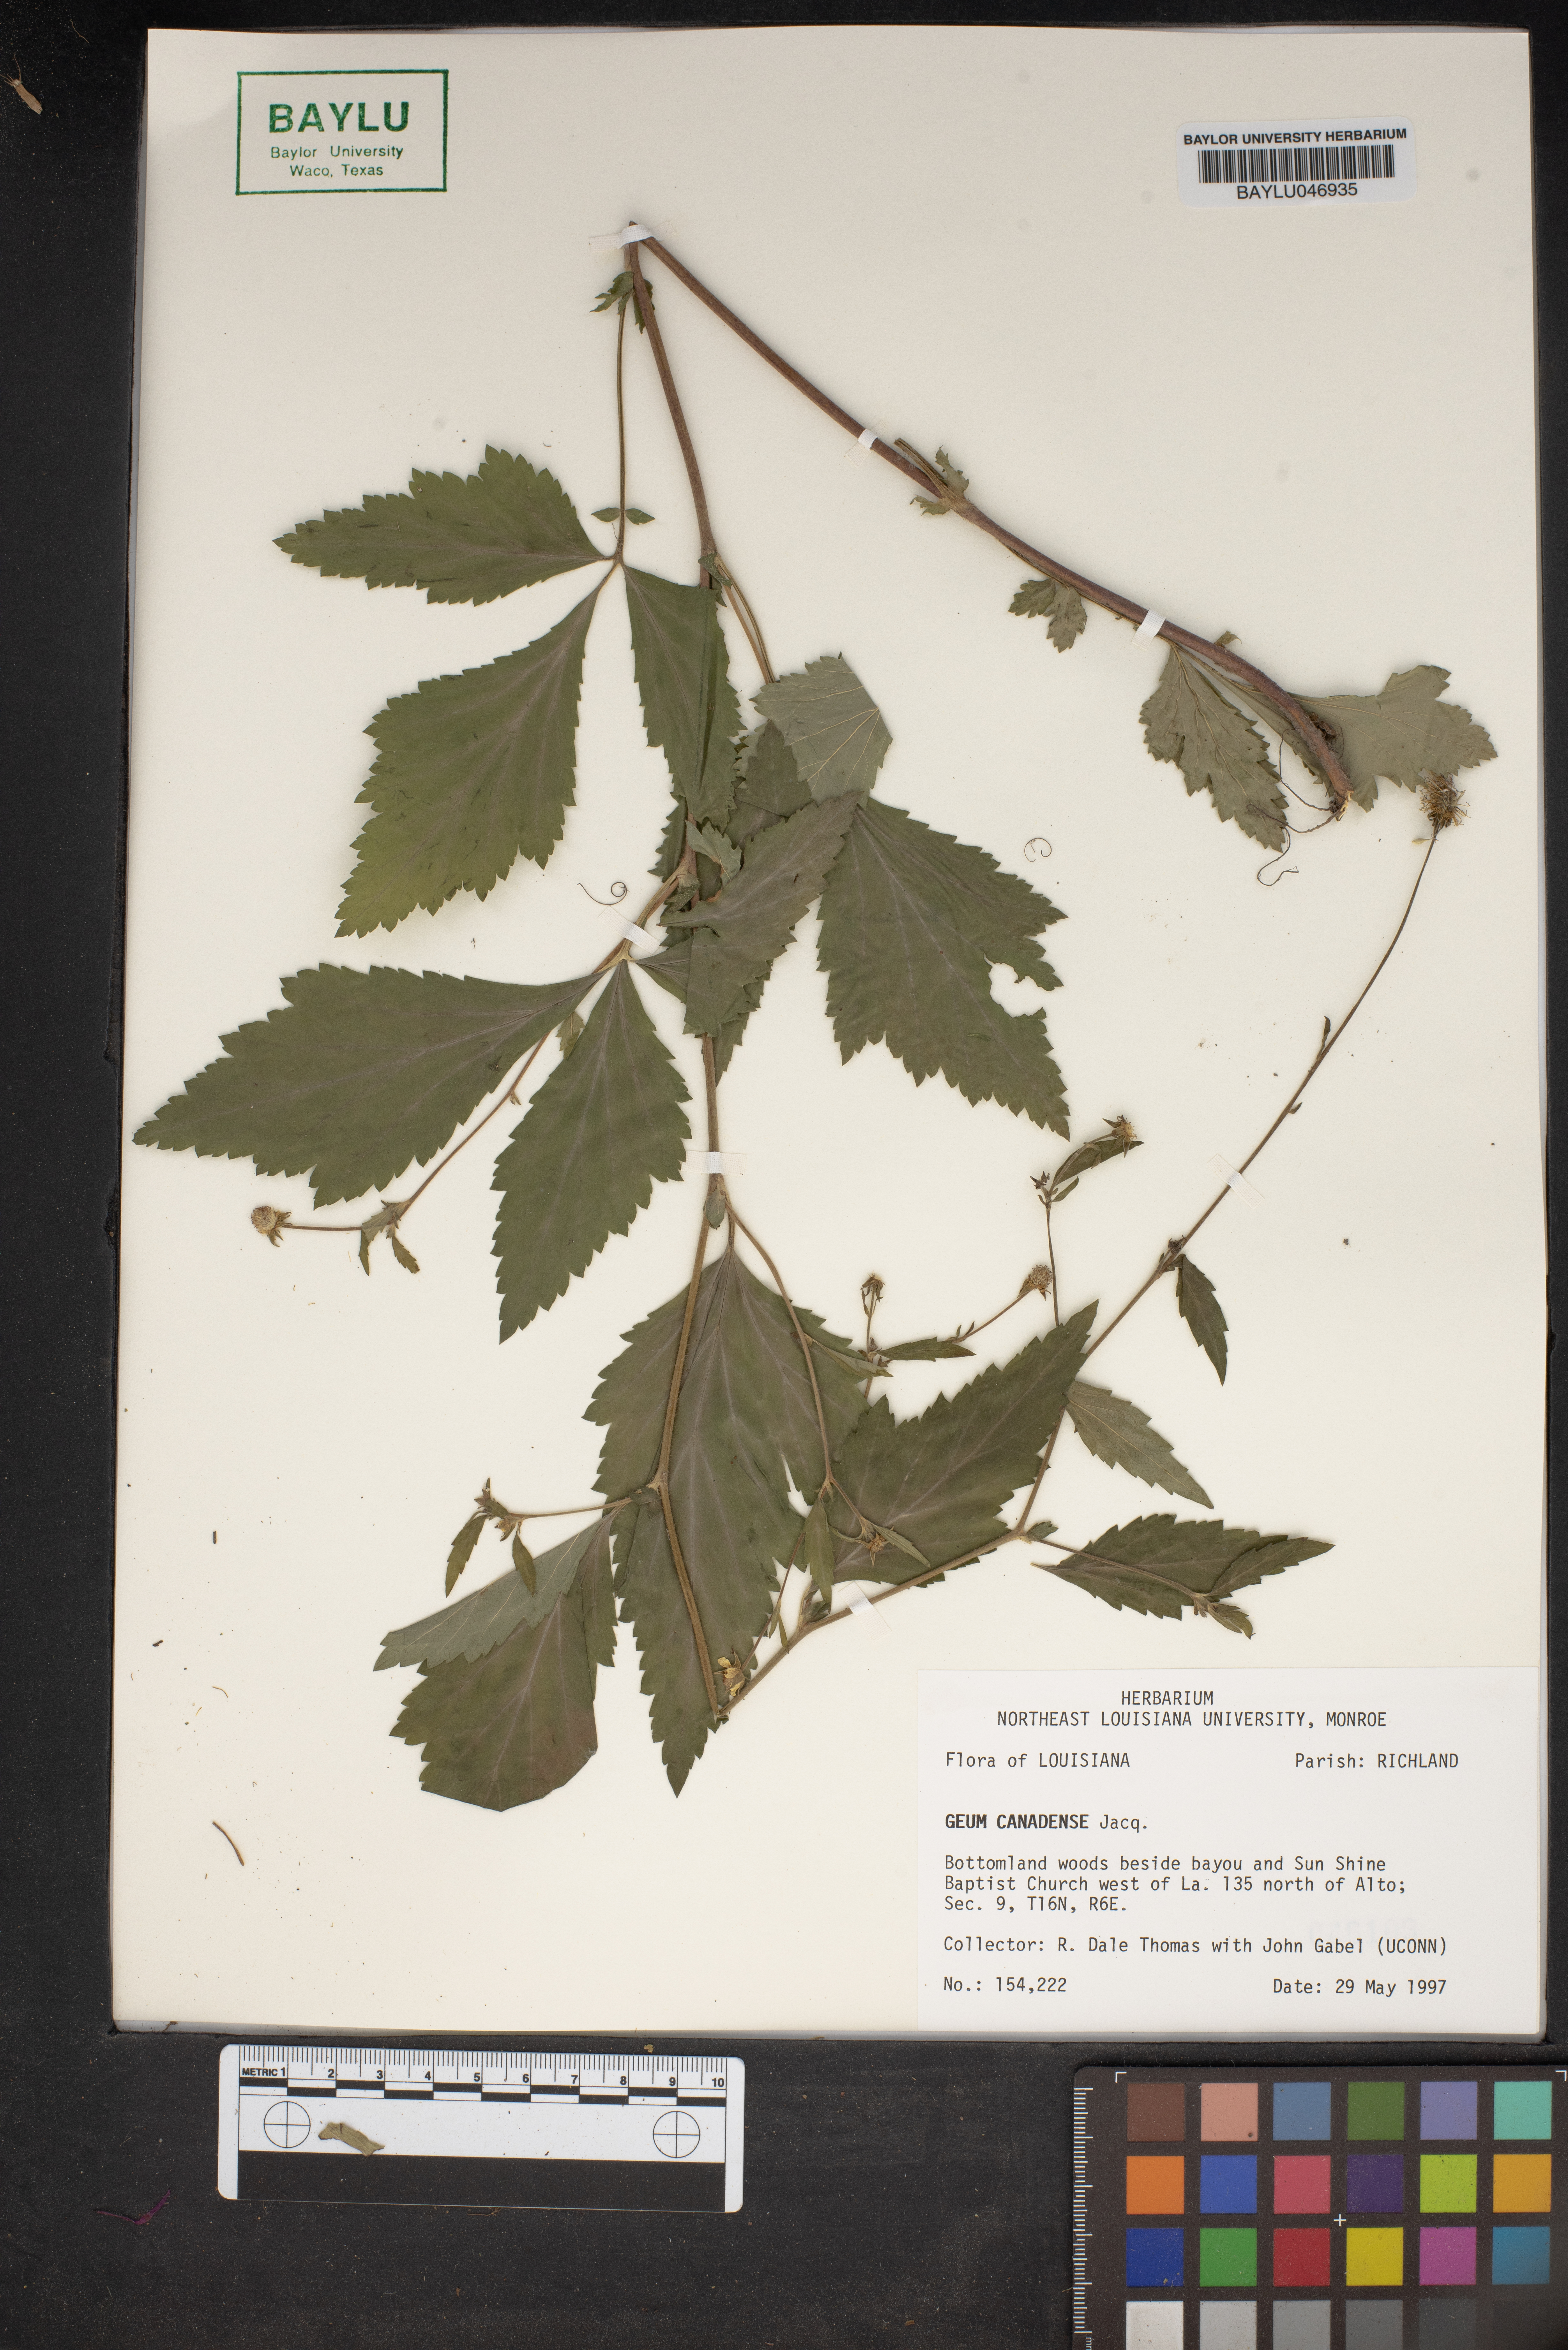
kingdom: Plantae
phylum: Tracheophyta
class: Magnoliopsida
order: Rosales
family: Rosaceae
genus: Geum
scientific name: Geum canadense
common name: White avens
